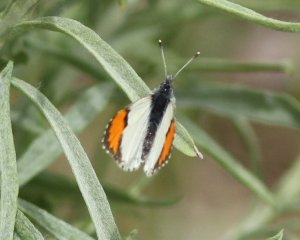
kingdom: Animalia
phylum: Arthropoda
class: Insecta
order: Lepidoptera
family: Pieridae
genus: Anthocharis
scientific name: Anthocharis sara
